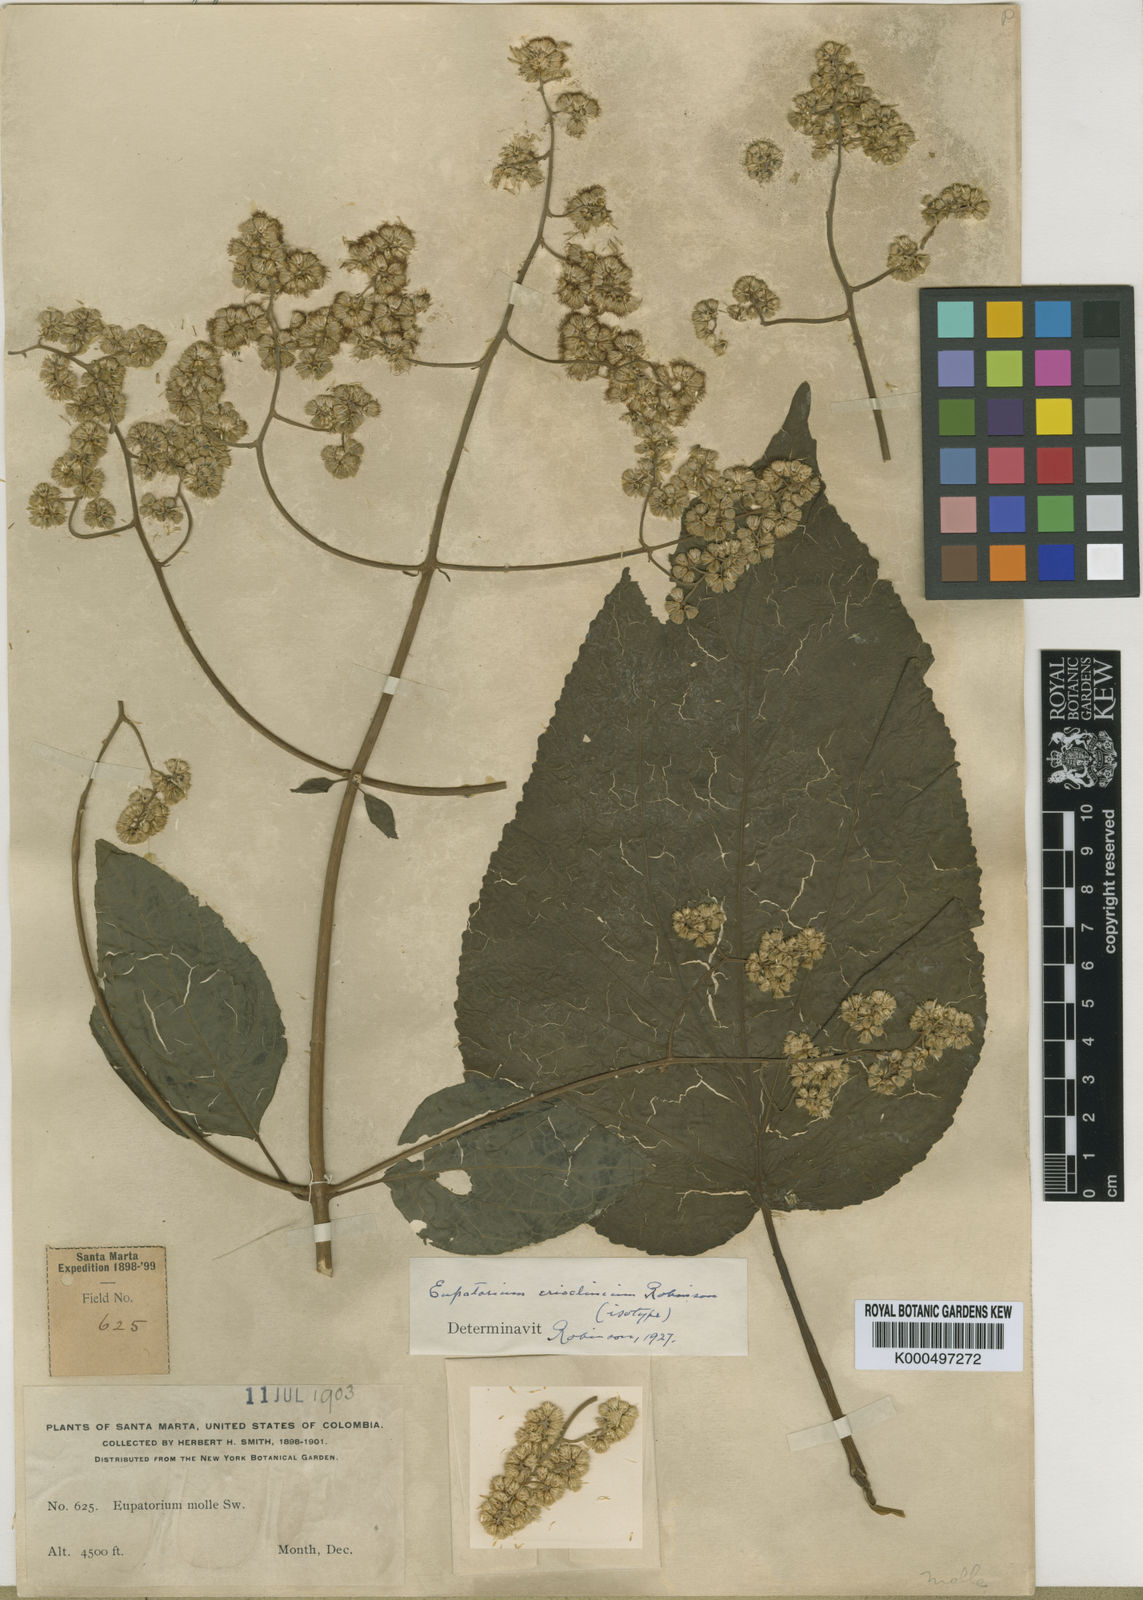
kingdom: Plantae
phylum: Tracheophyta
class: Magnoliopsida
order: Asterales
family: Asteraceae
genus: Hebeclinium
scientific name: Hebeclinium erioclinium
